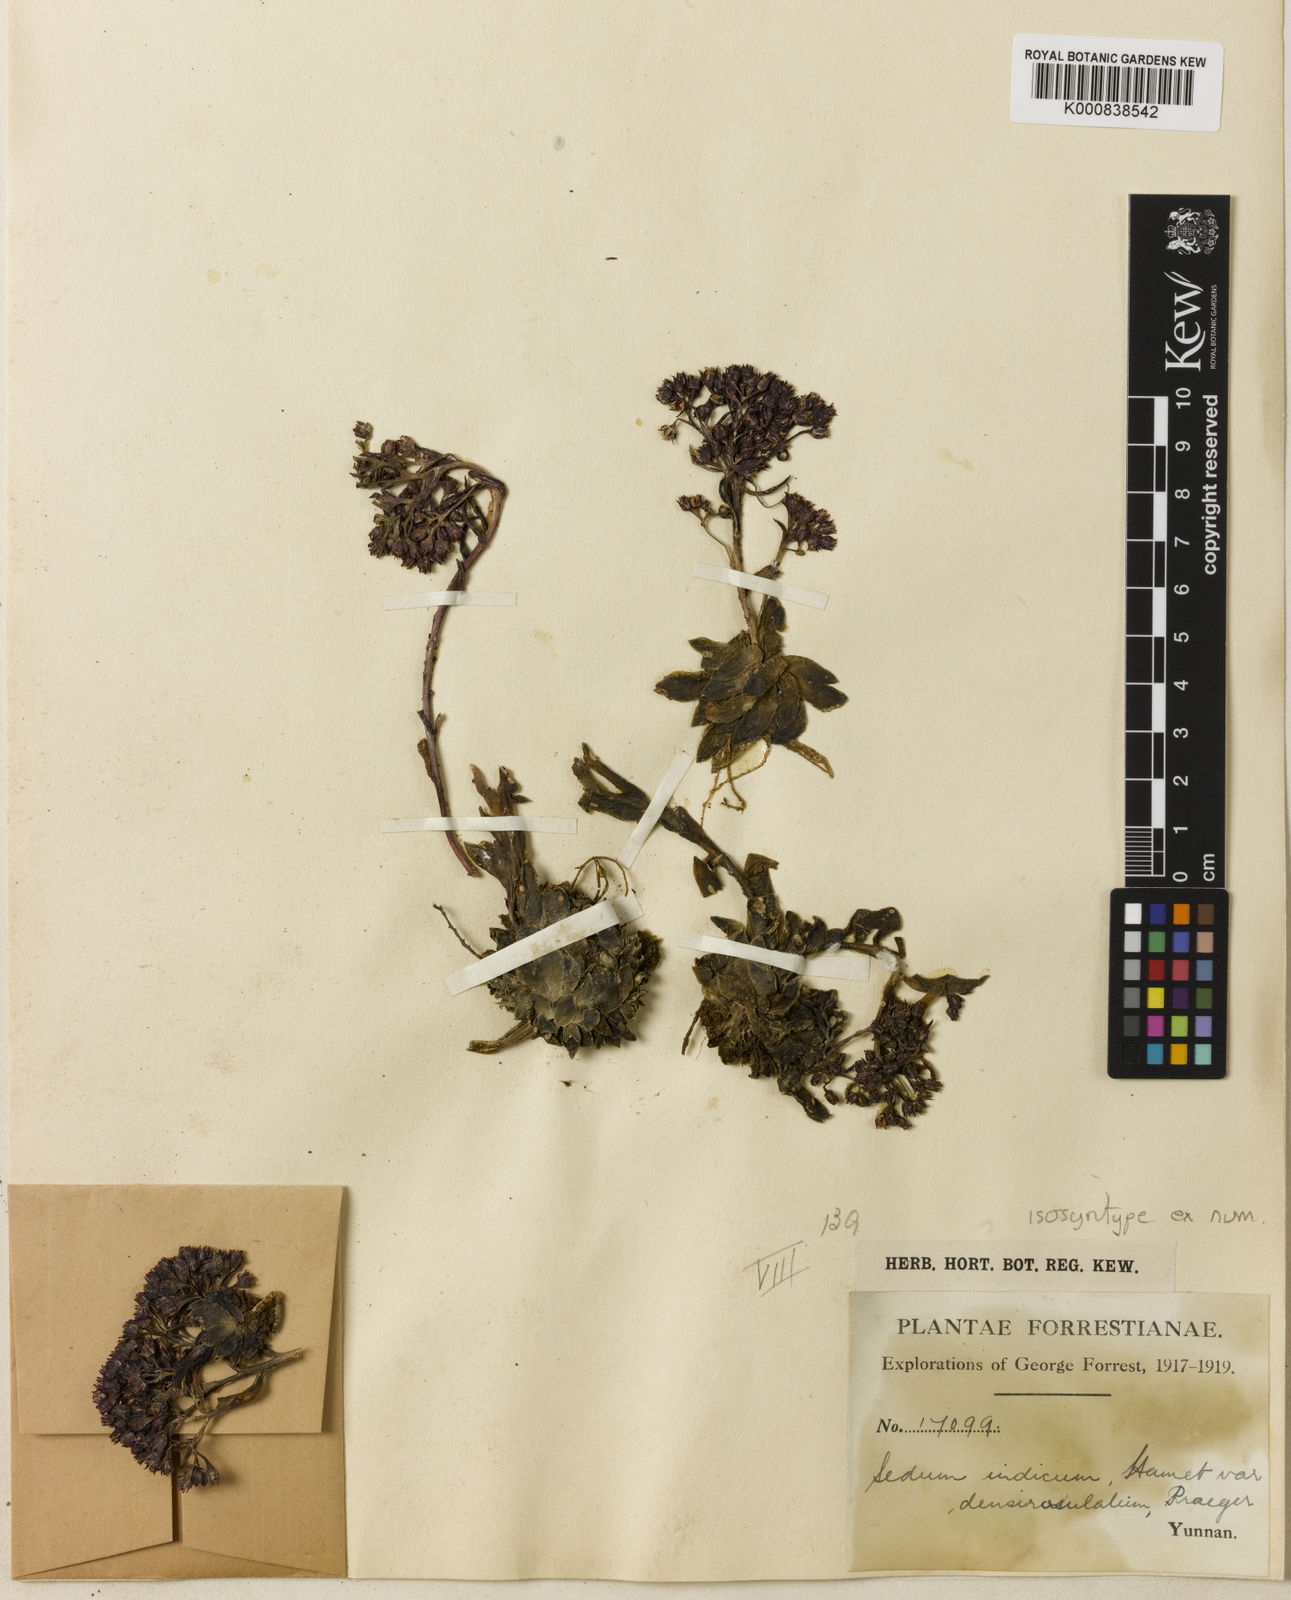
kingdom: Plantae
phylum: Tracheophyta
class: Magnoliopsida
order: Saxifragales
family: Crassulaceae
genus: Sinocrassula
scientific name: Sinocrassula densirosulata
